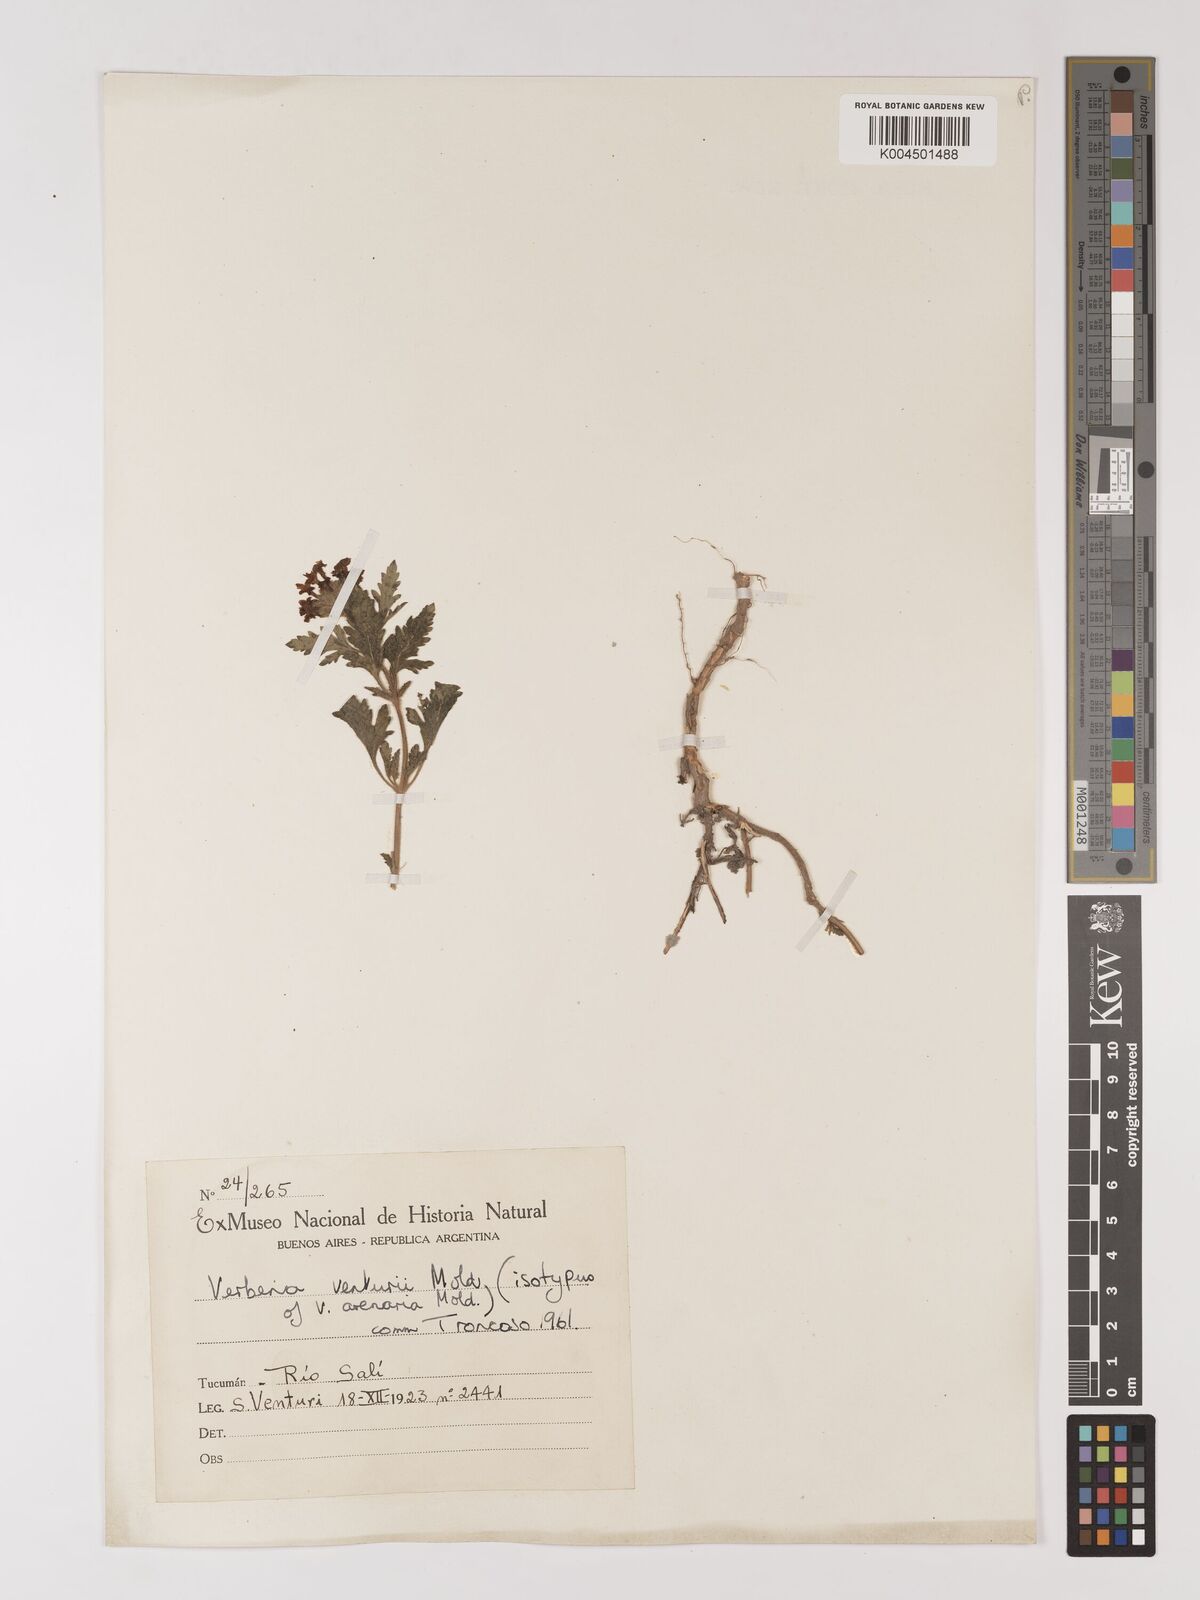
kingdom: Plantae
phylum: Tracheophyta
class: Magnoliopsida
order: Lamiales
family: Verbenaceae
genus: Verbena
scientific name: Verbena venturii
